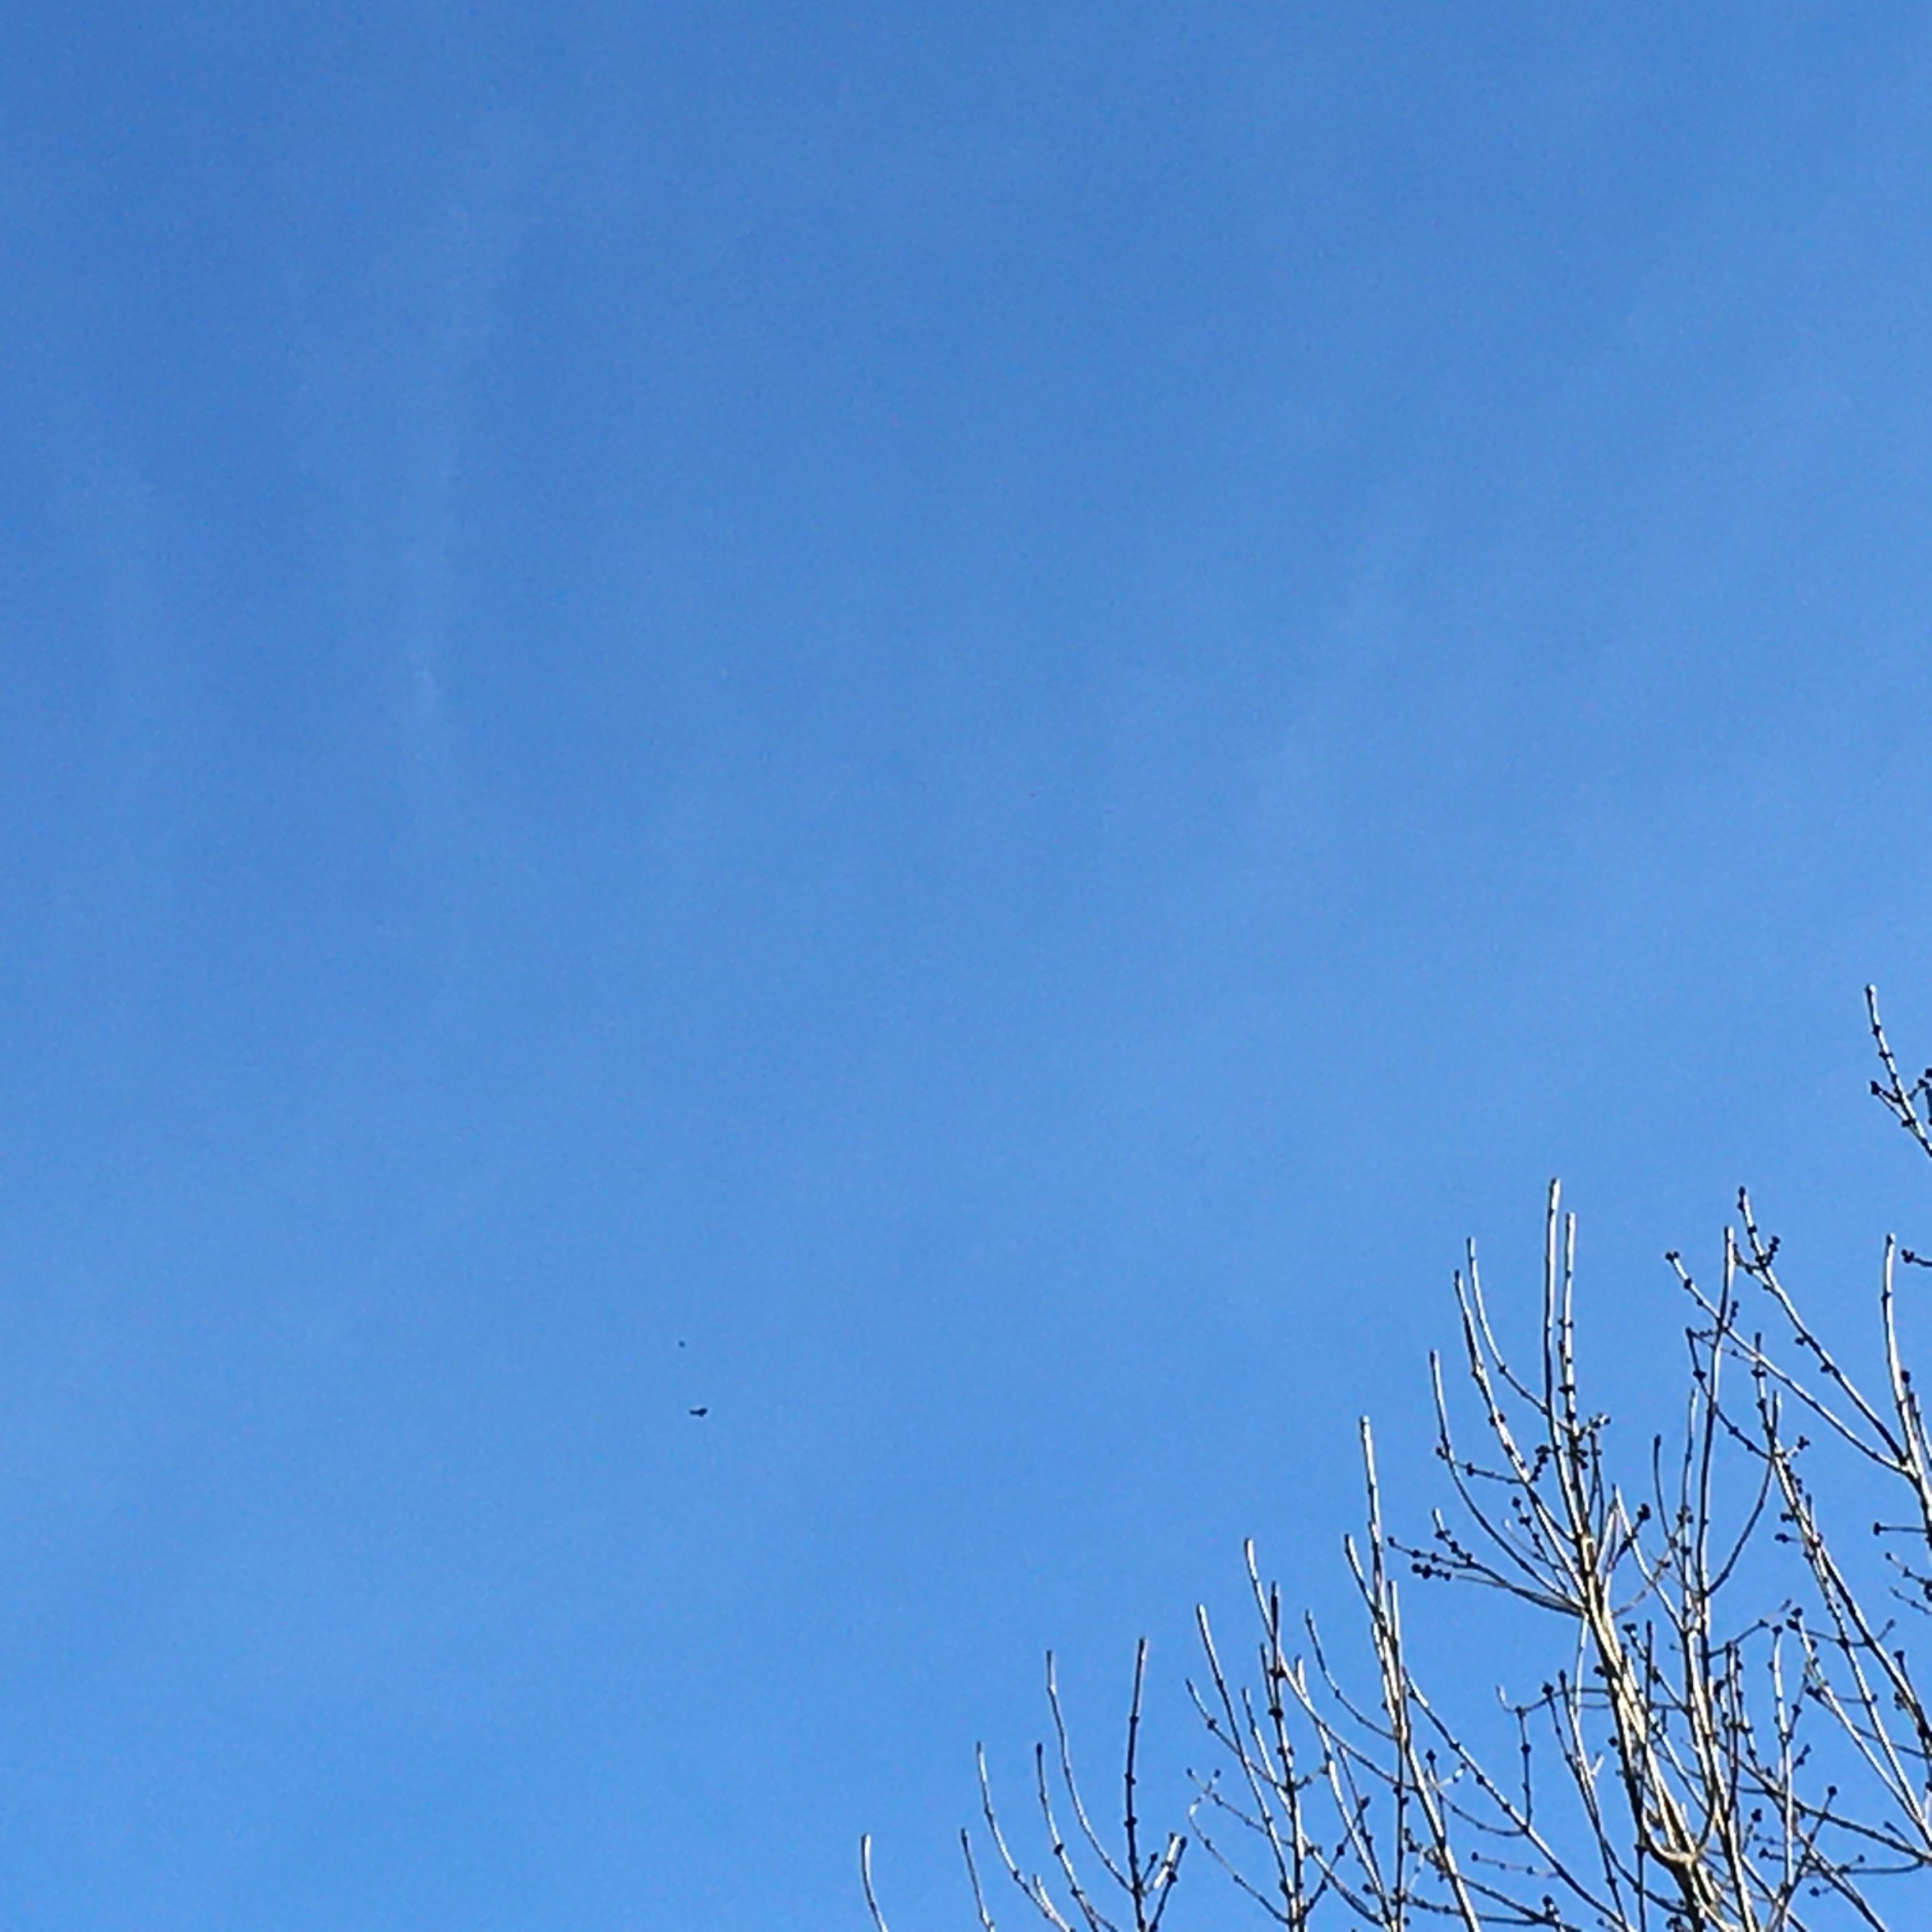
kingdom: Animalia
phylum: Chordata
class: Aves
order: Accipitriformes
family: Accipitridae
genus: Haliaeetus
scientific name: Haliaeetus albicilla
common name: Havørn
